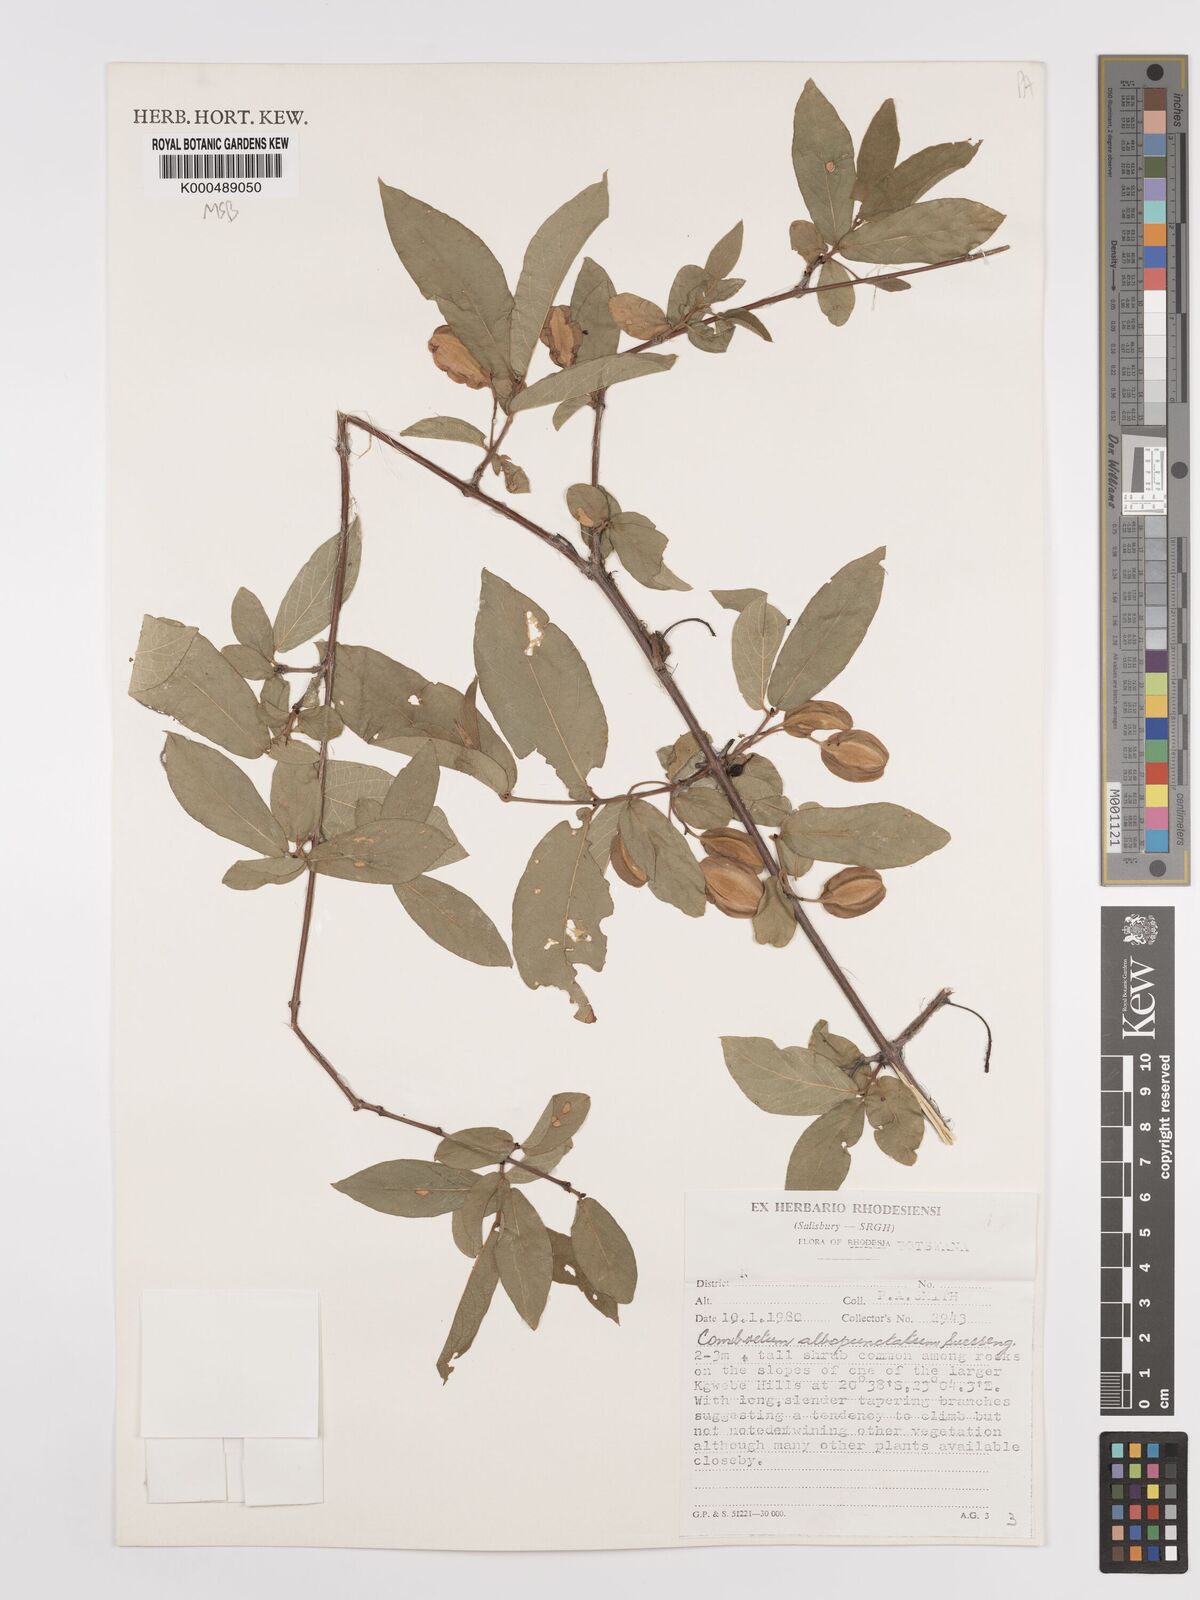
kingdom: Plantae
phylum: Tracheophyta
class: Magnoliopsida
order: Myrtales
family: Combretaceae
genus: Combretum
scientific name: Combretum albopunctatum
